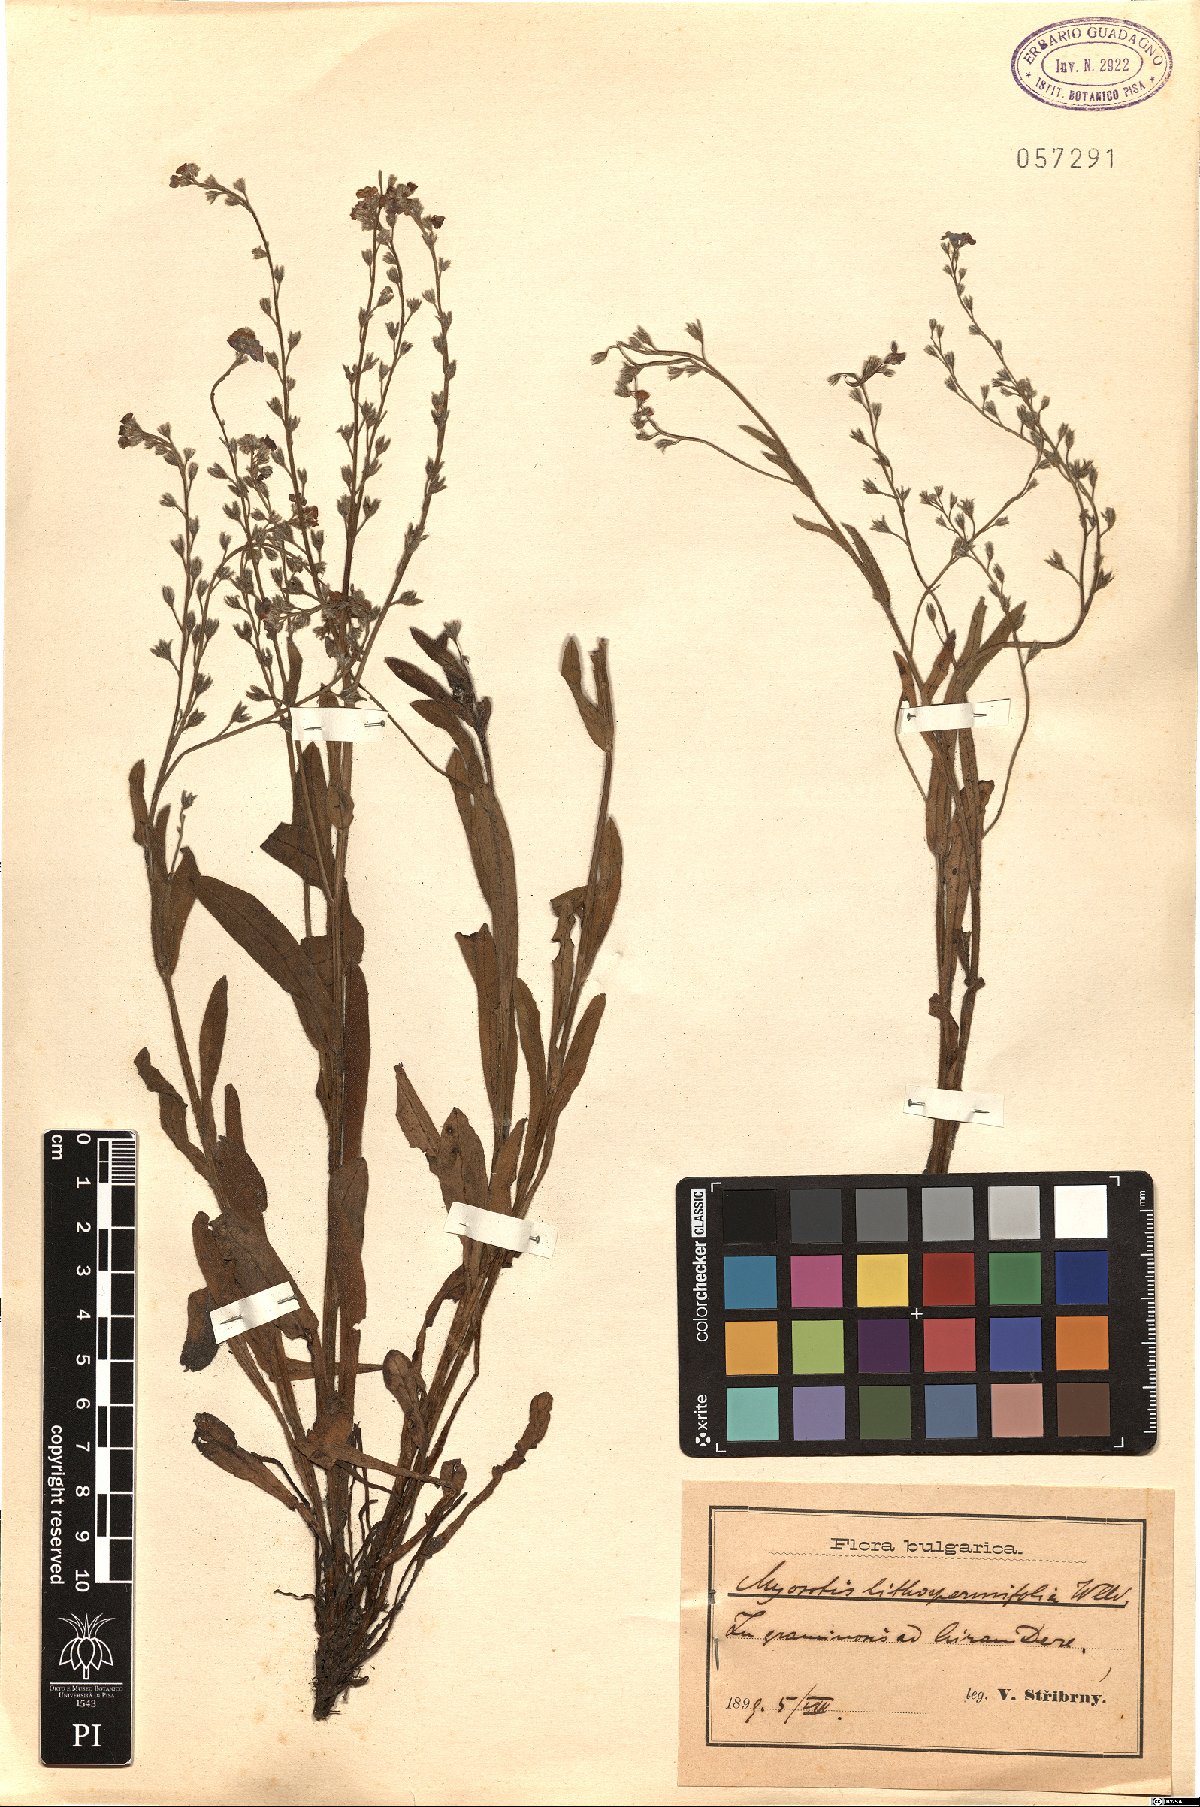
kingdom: Plantae
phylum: Tracheophyta
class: Magnoliopsida
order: Boraginales
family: Boraginaceae
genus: Myosotis
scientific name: Myosotis lithospermifolia
